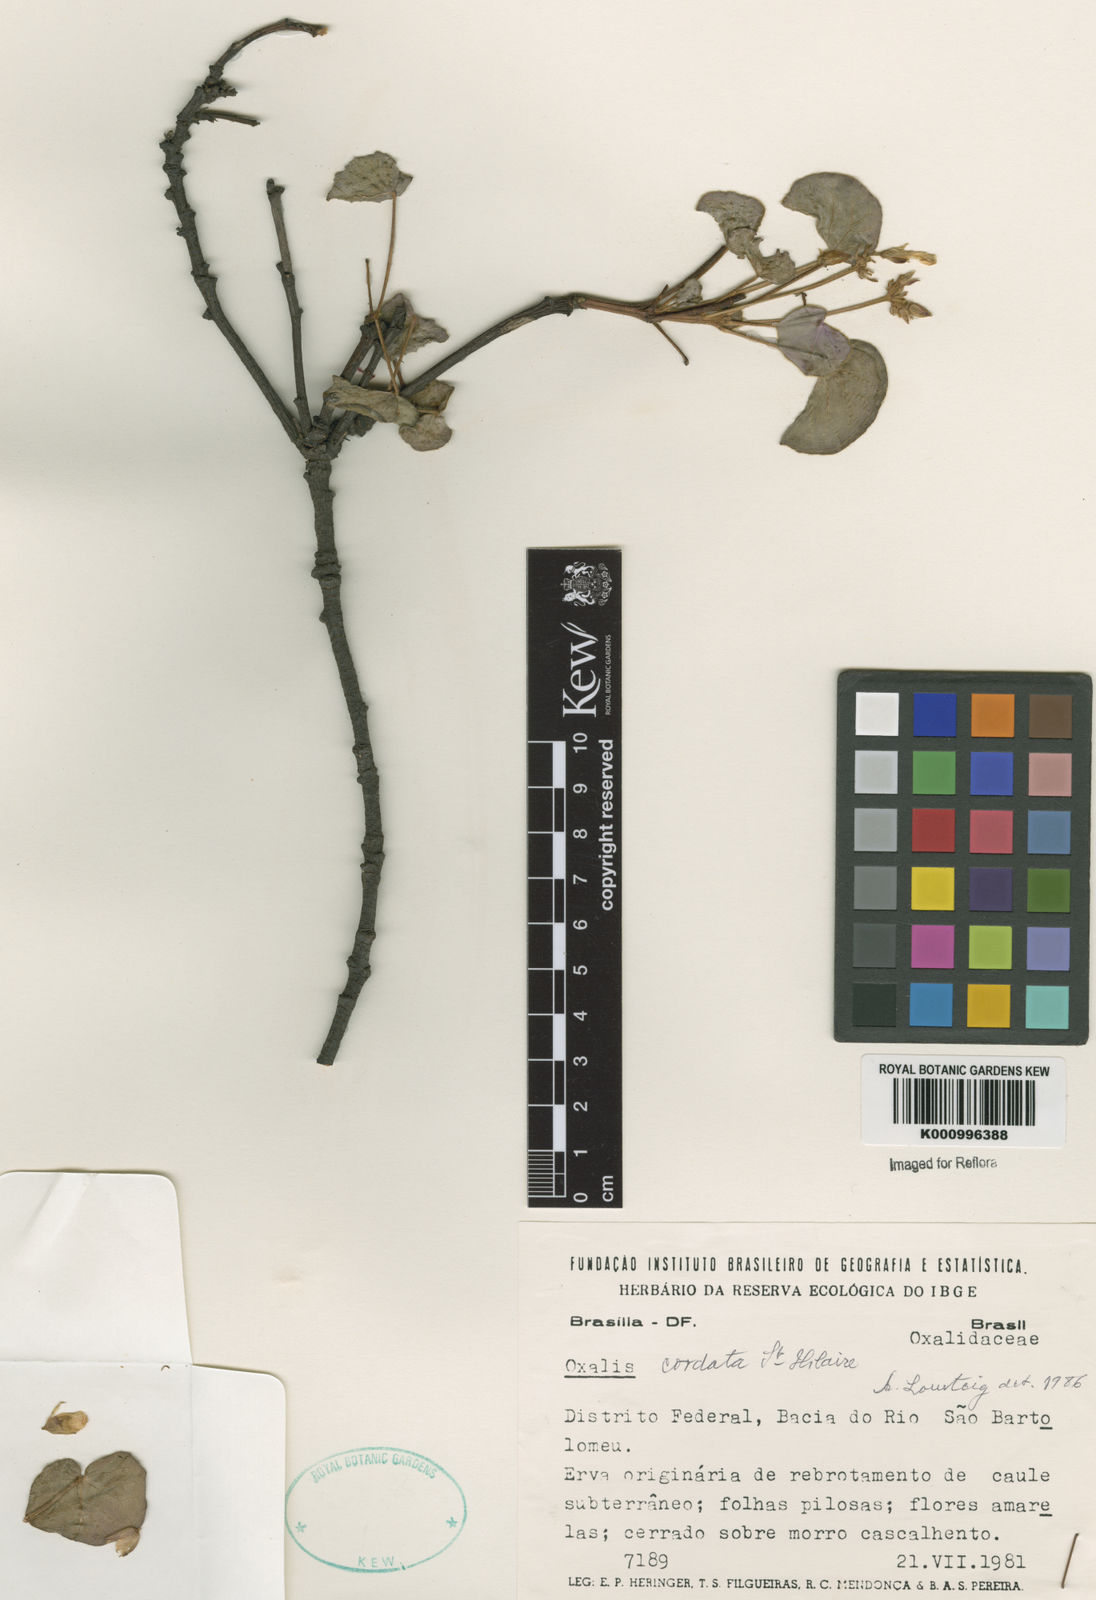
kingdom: Plantae
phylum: Tracheophyta
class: Magnoliopsida
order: Oxalidales
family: Oxalidaceae
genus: Oxalis
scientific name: Oxalis cordata
